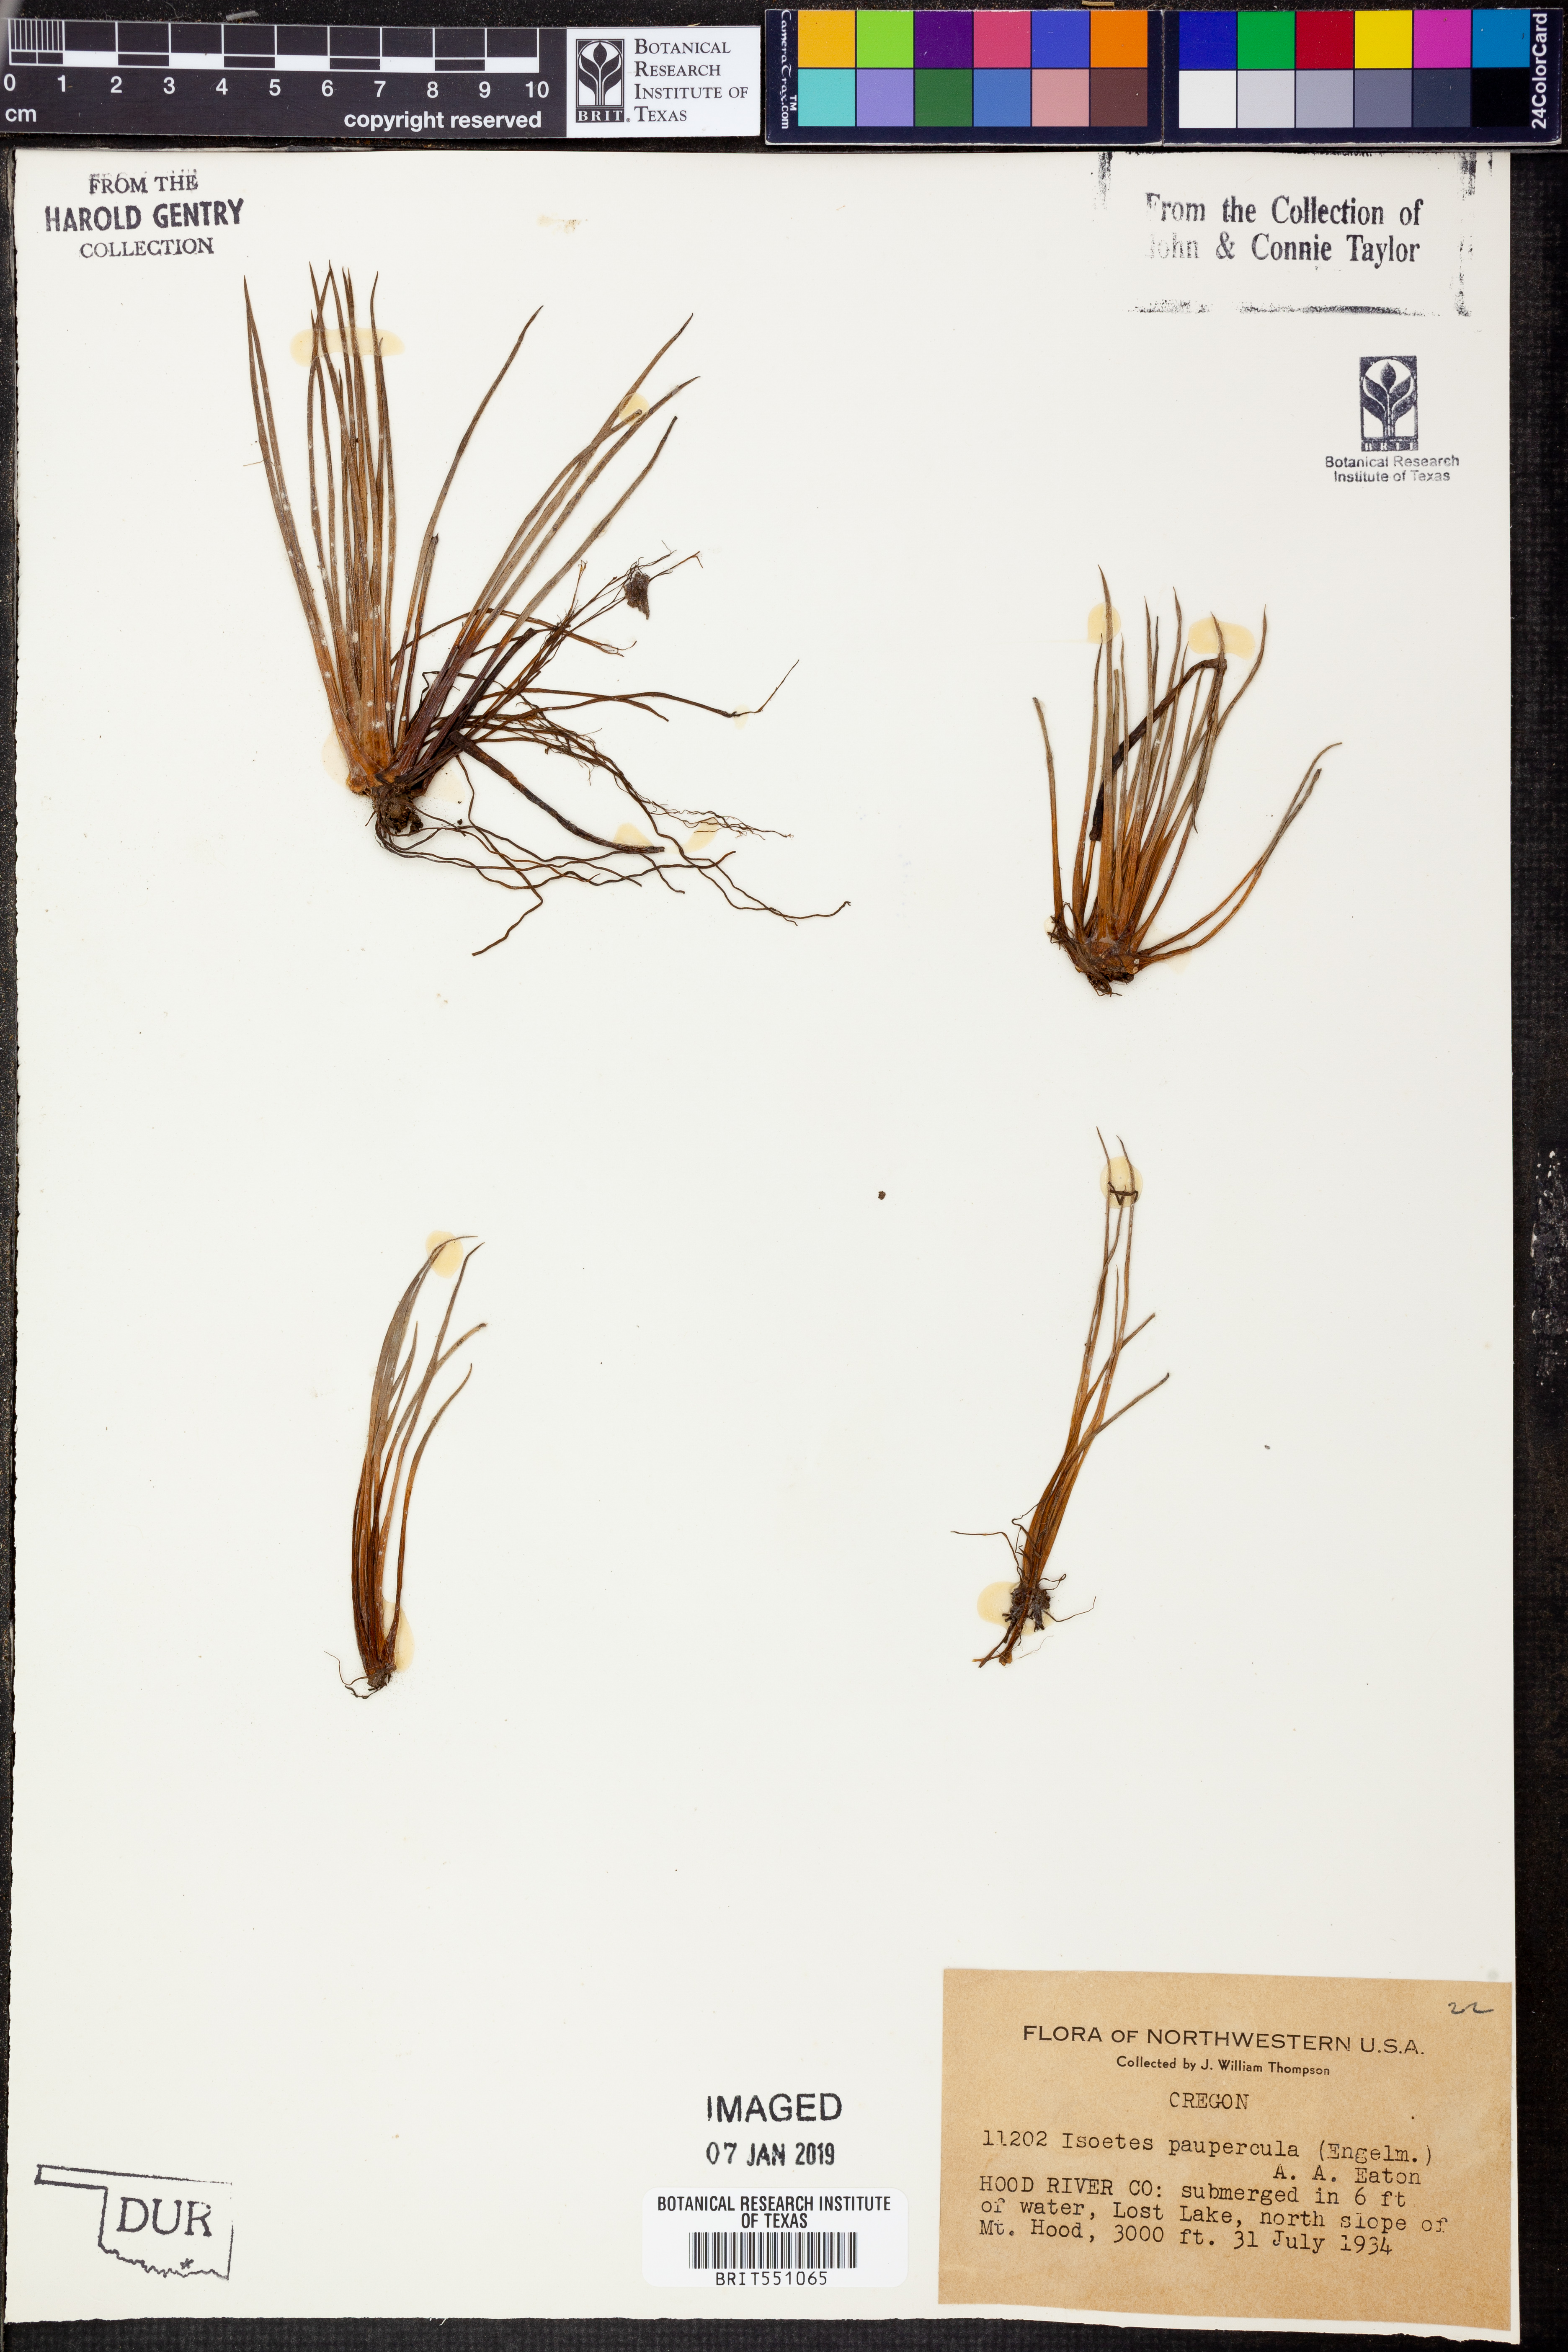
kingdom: Plantae
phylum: Tracheophyta
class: Lycopodiopsida
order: Isoetales
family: Isoetaceae
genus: Isoetes
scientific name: Isoetes occidentalis
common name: Western quillwort
